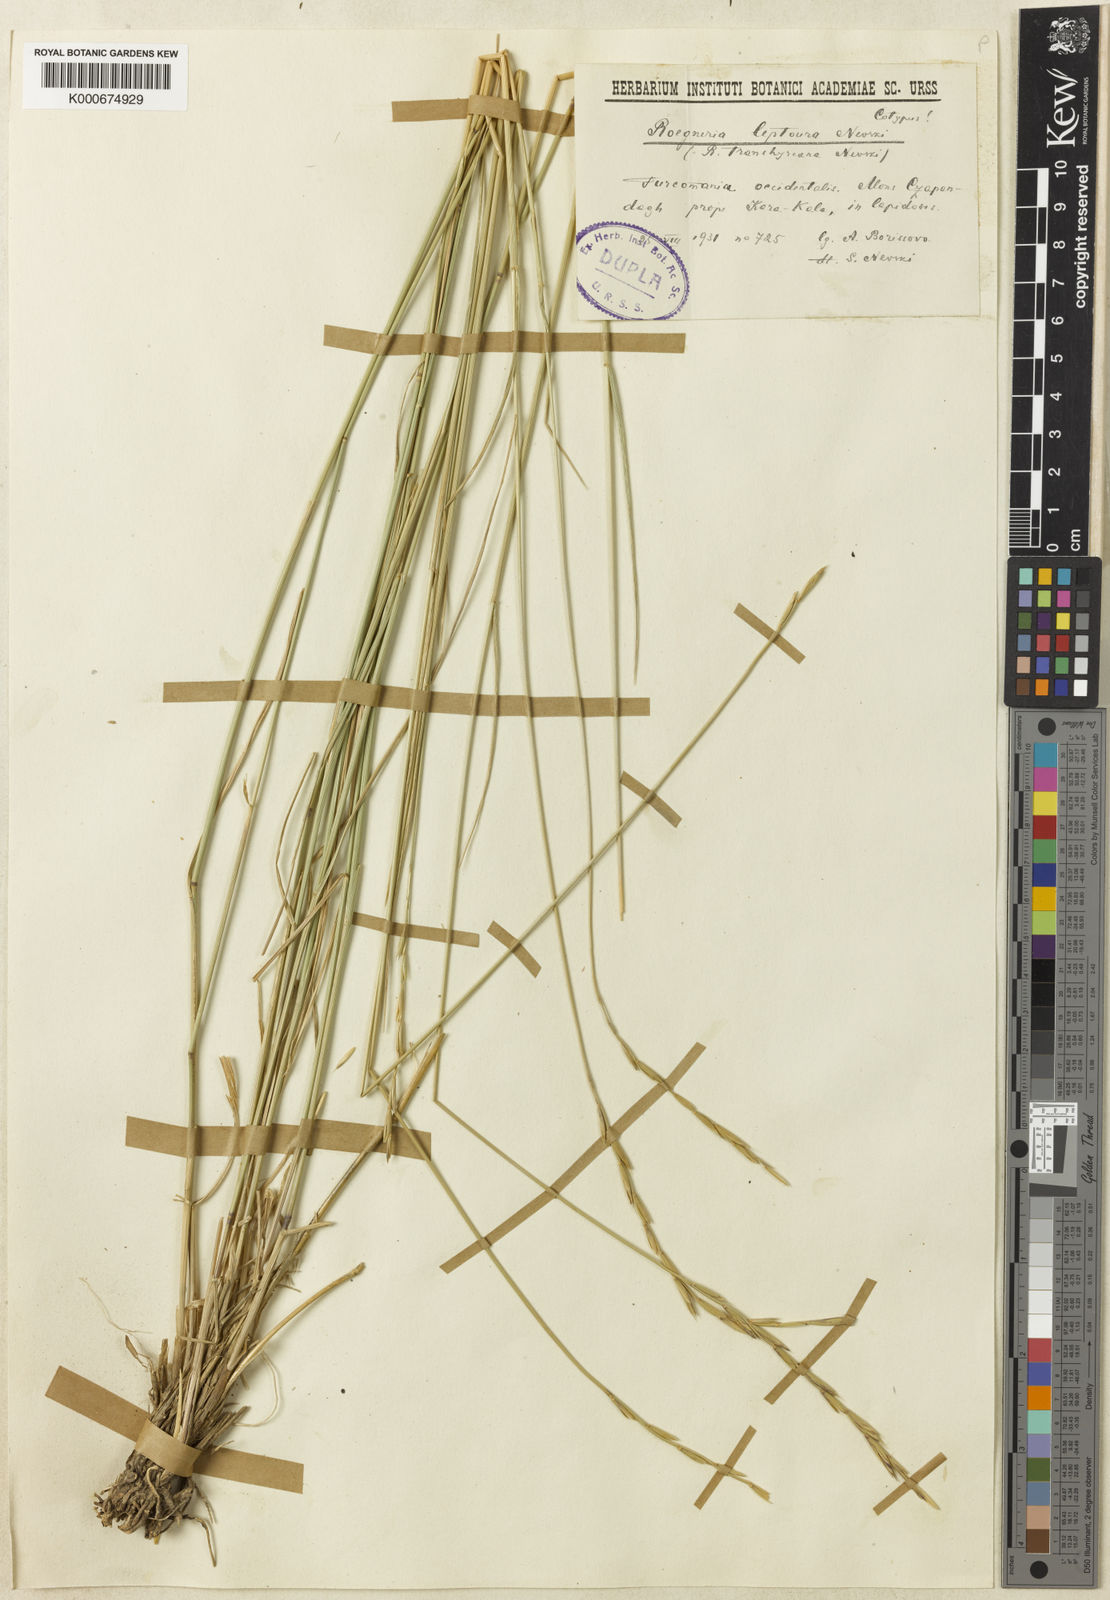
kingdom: Plantae
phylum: Tracheophyta
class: Liliopsida
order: Poales
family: Poaceae
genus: Elymus
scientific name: Elymus transhyrcanus
